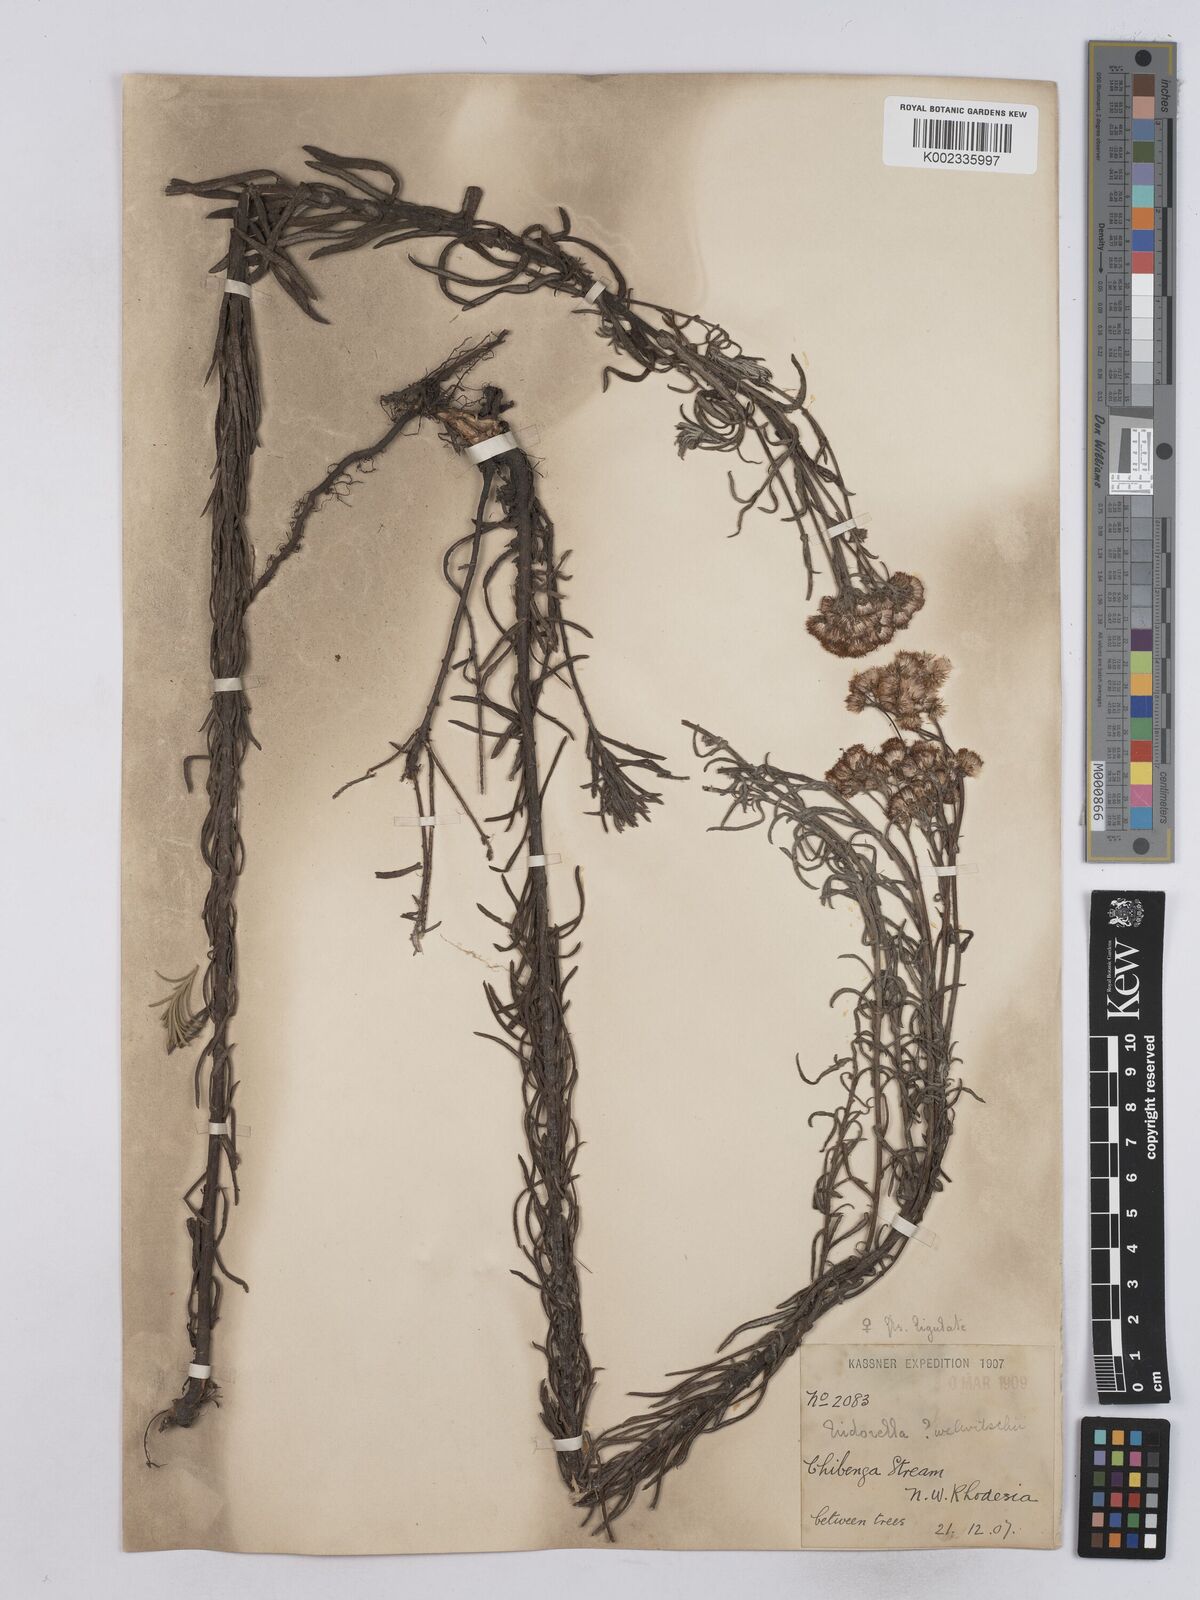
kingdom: Plantae
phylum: Tracheophyta
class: Magnoliopsida
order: Asterales
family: Asteraceae
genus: Nidorella
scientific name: Nidorella welwitschii
